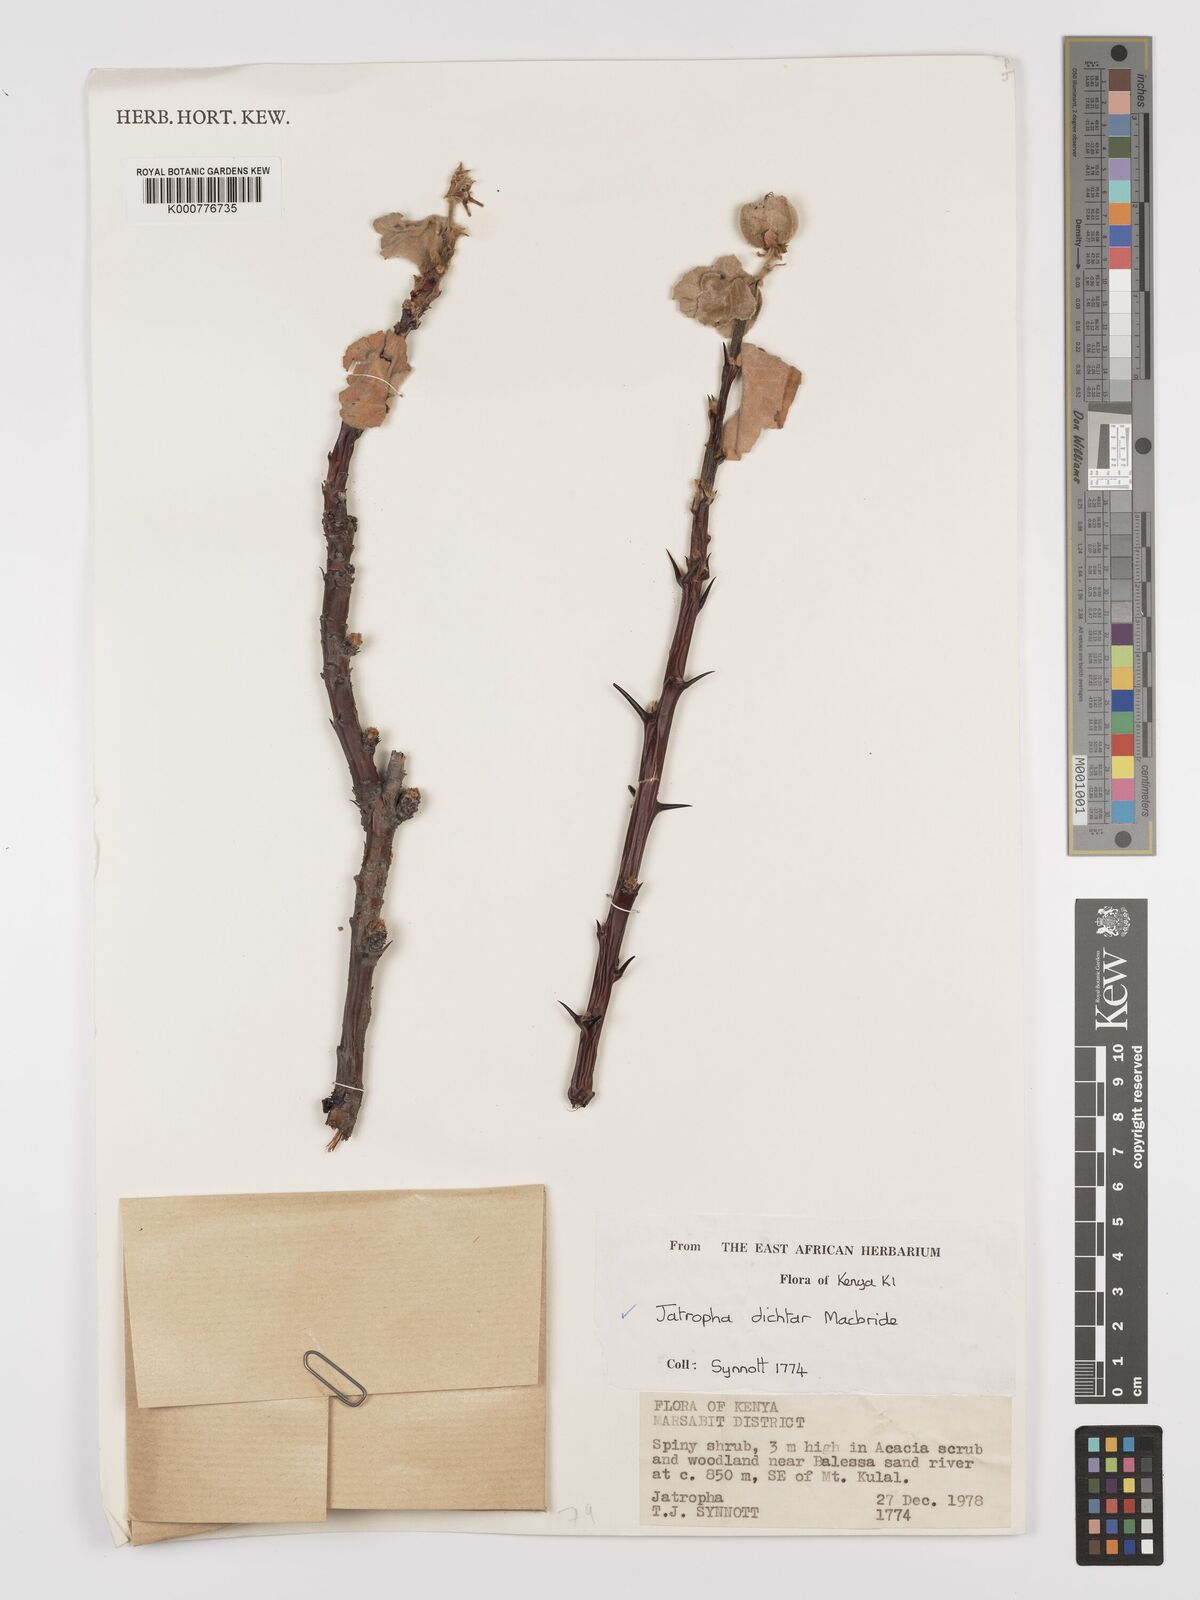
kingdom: Plantae
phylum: Tracheophyta
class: Magnoliopsida
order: Malpighiales
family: Euphorbiaceae
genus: Jatropha
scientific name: Jatropha dichtar
